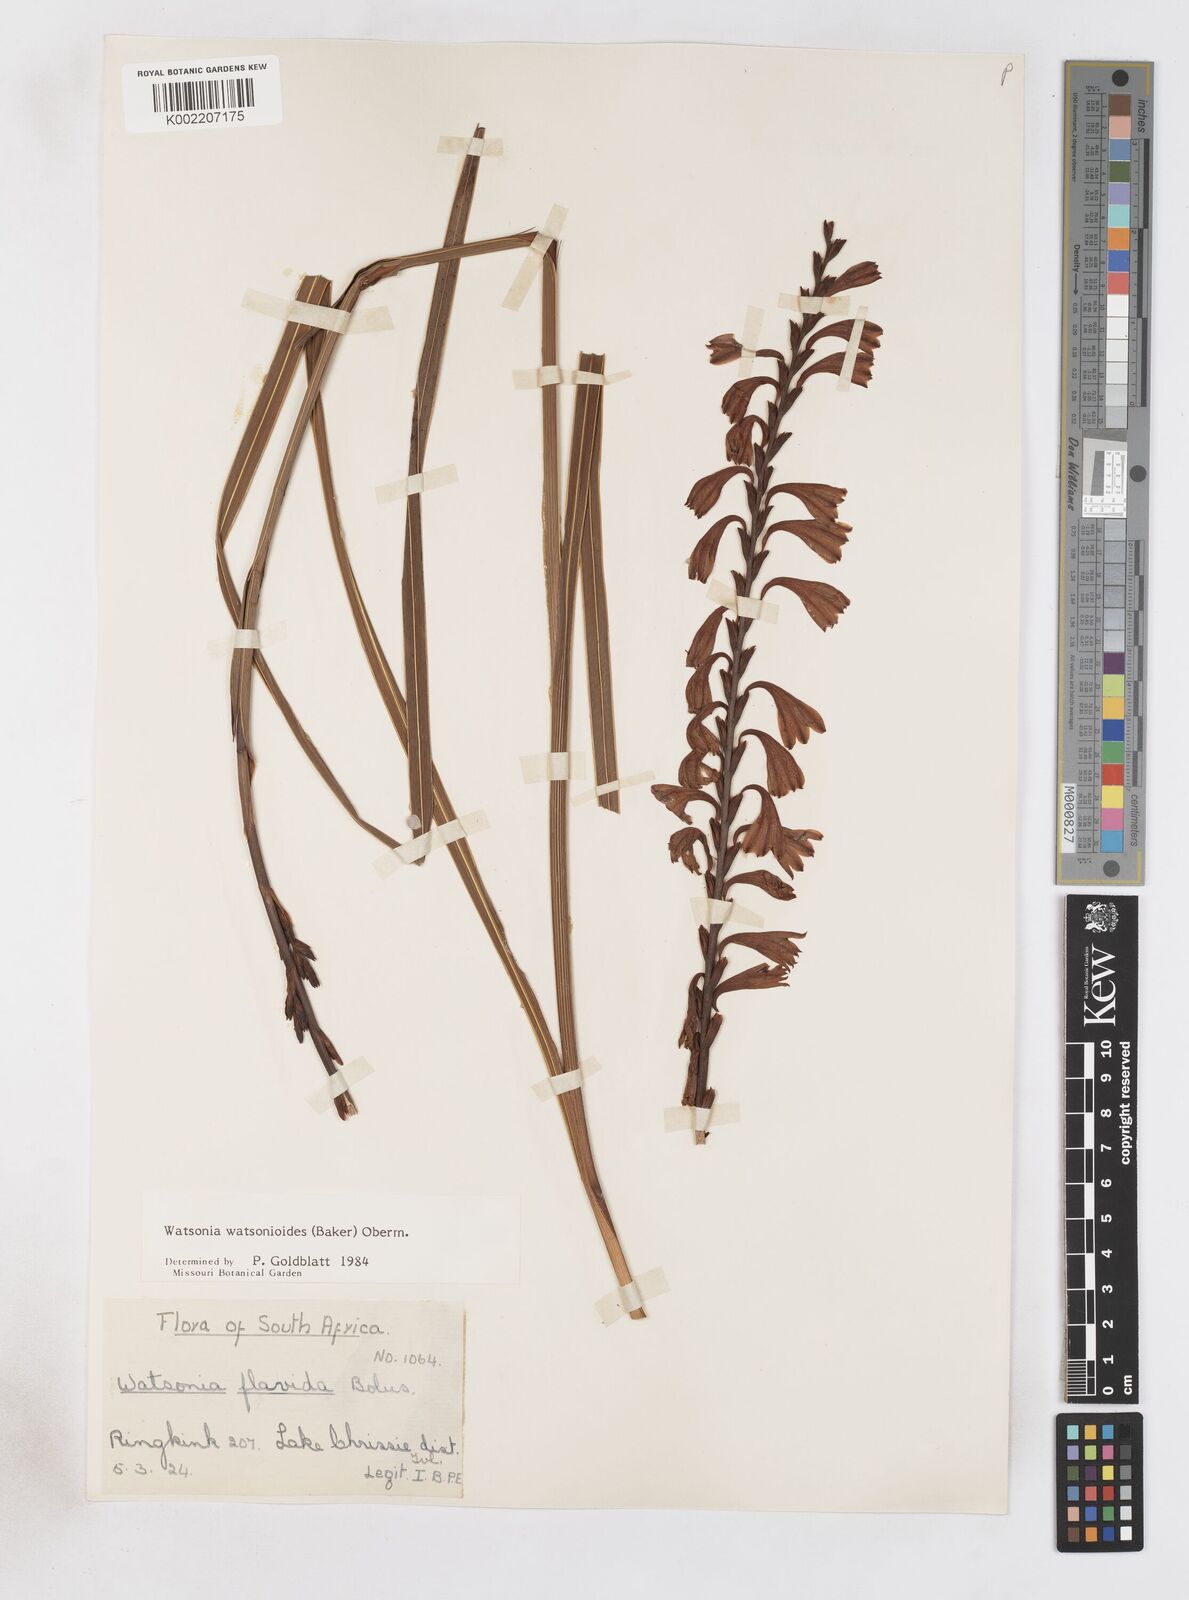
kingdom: Plantae
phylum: Tracheophyta
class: Liliopsida
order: Asparagales
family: Iridaceae
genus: Watsonia
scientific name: Watsonia watsonioides
